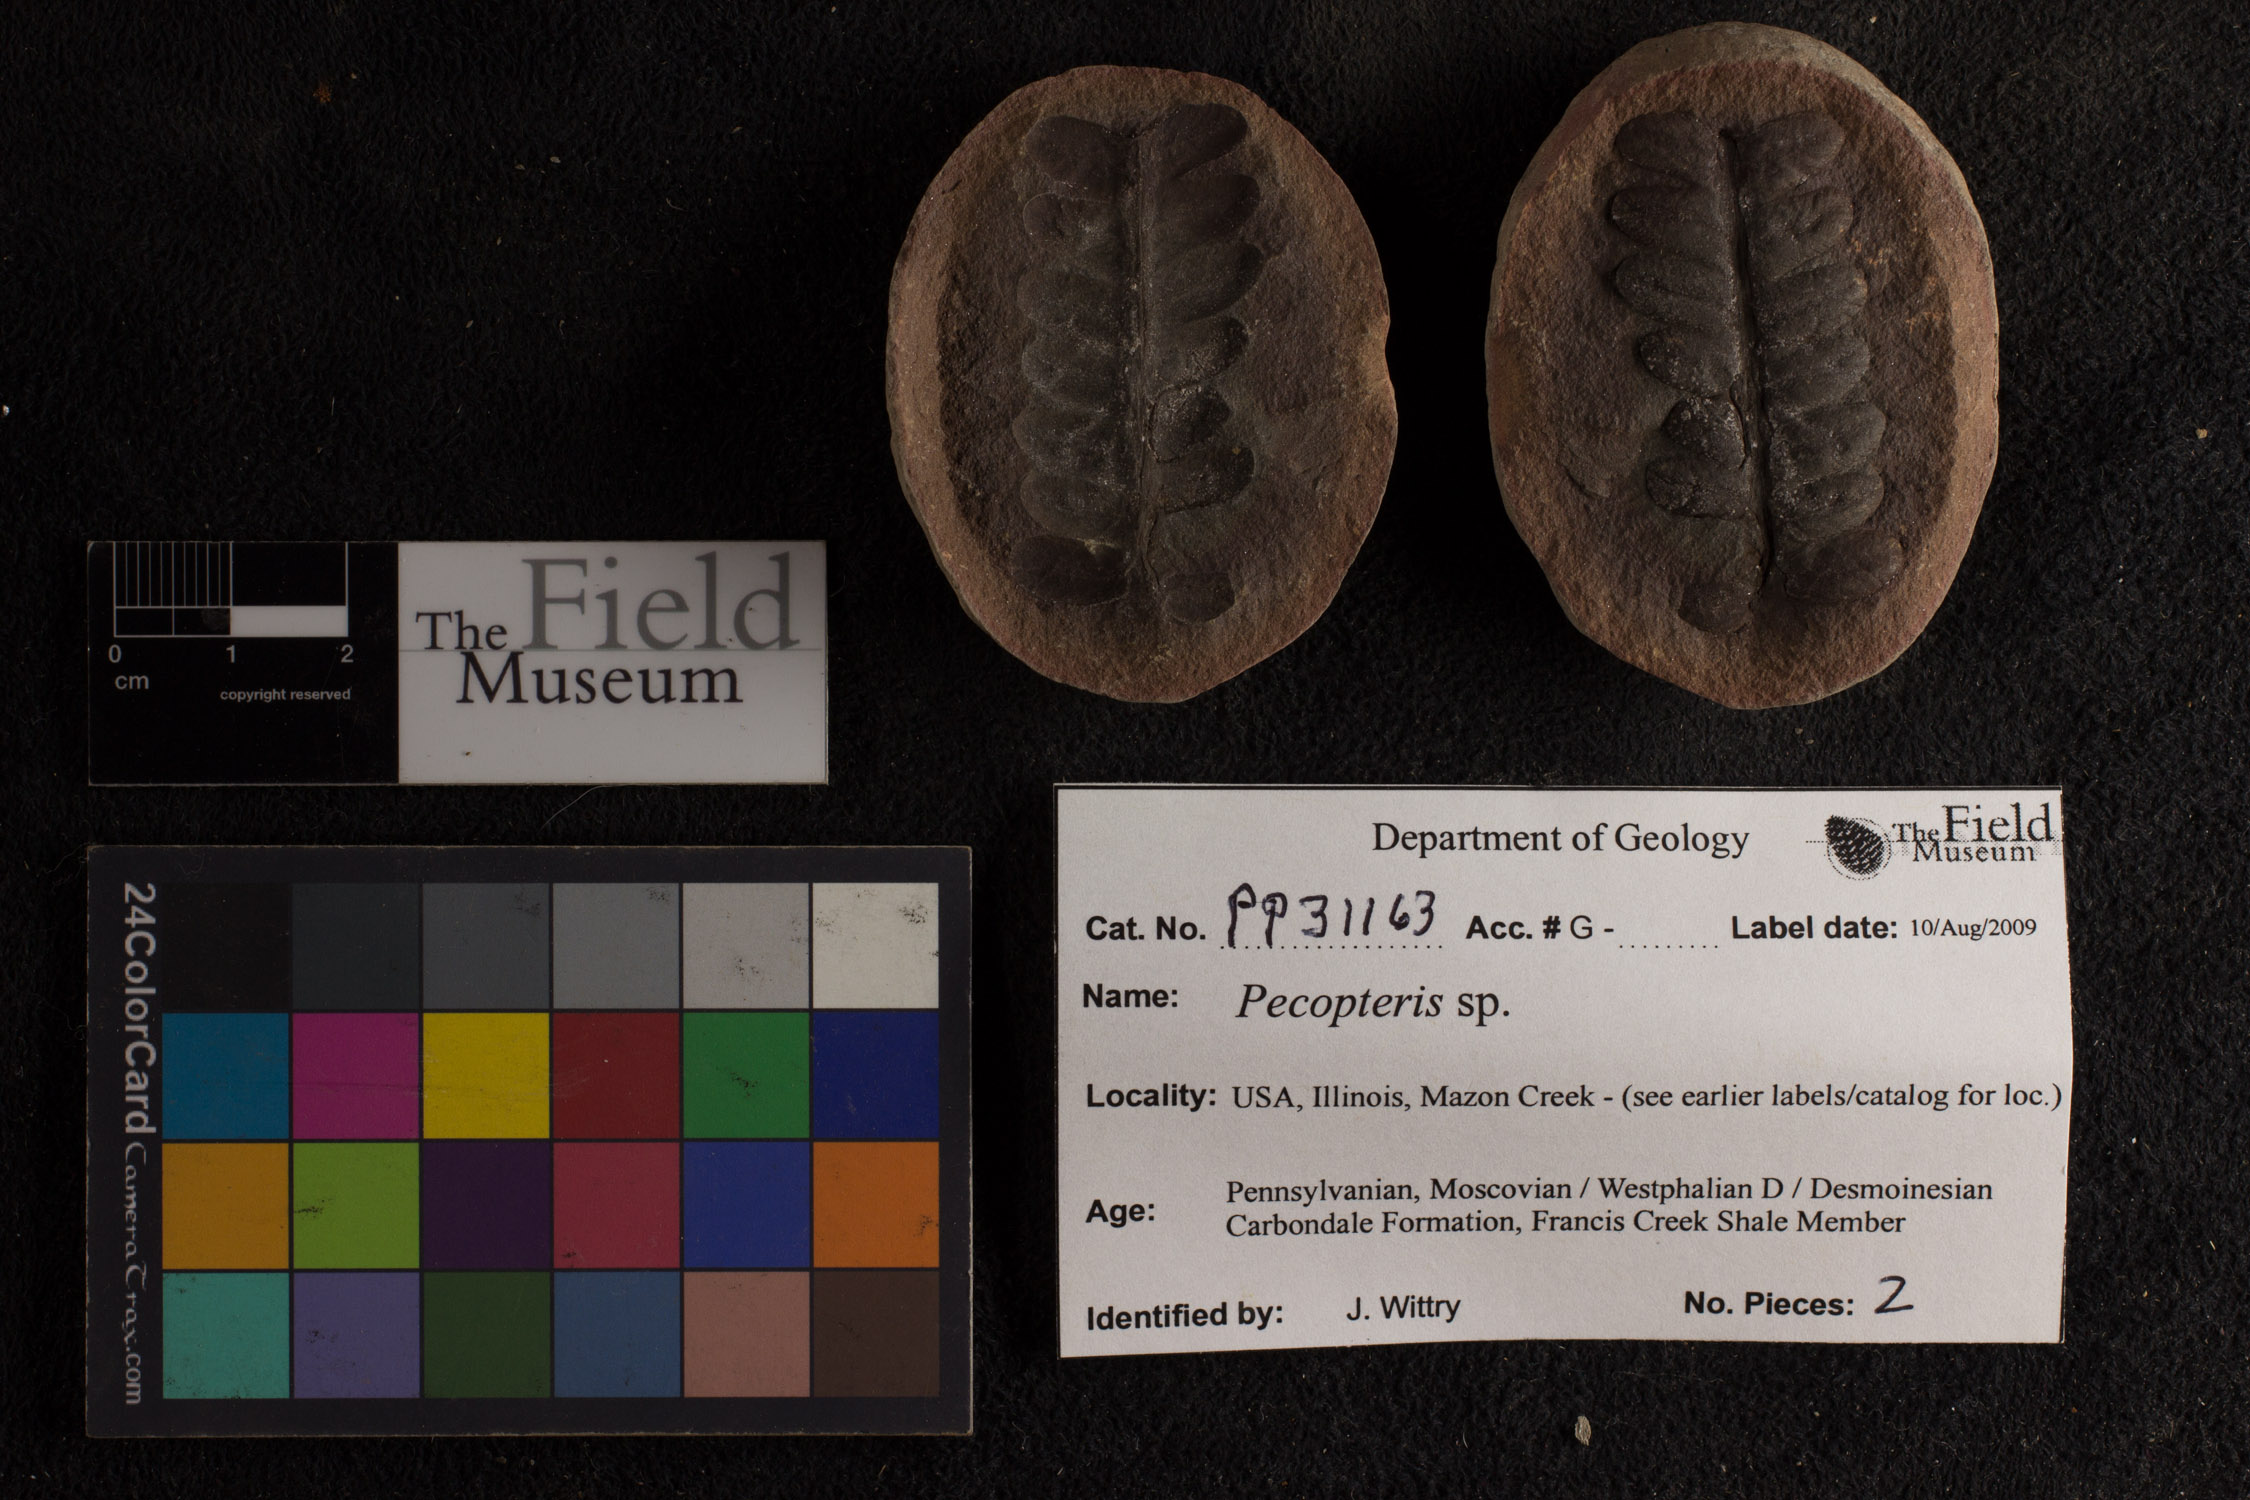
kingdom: Plantae
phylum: Tracheophyta
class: Polypodiopsida
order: Marattiales
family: Asterothecaceae
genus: Pecopteris
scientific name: Pecopteris
